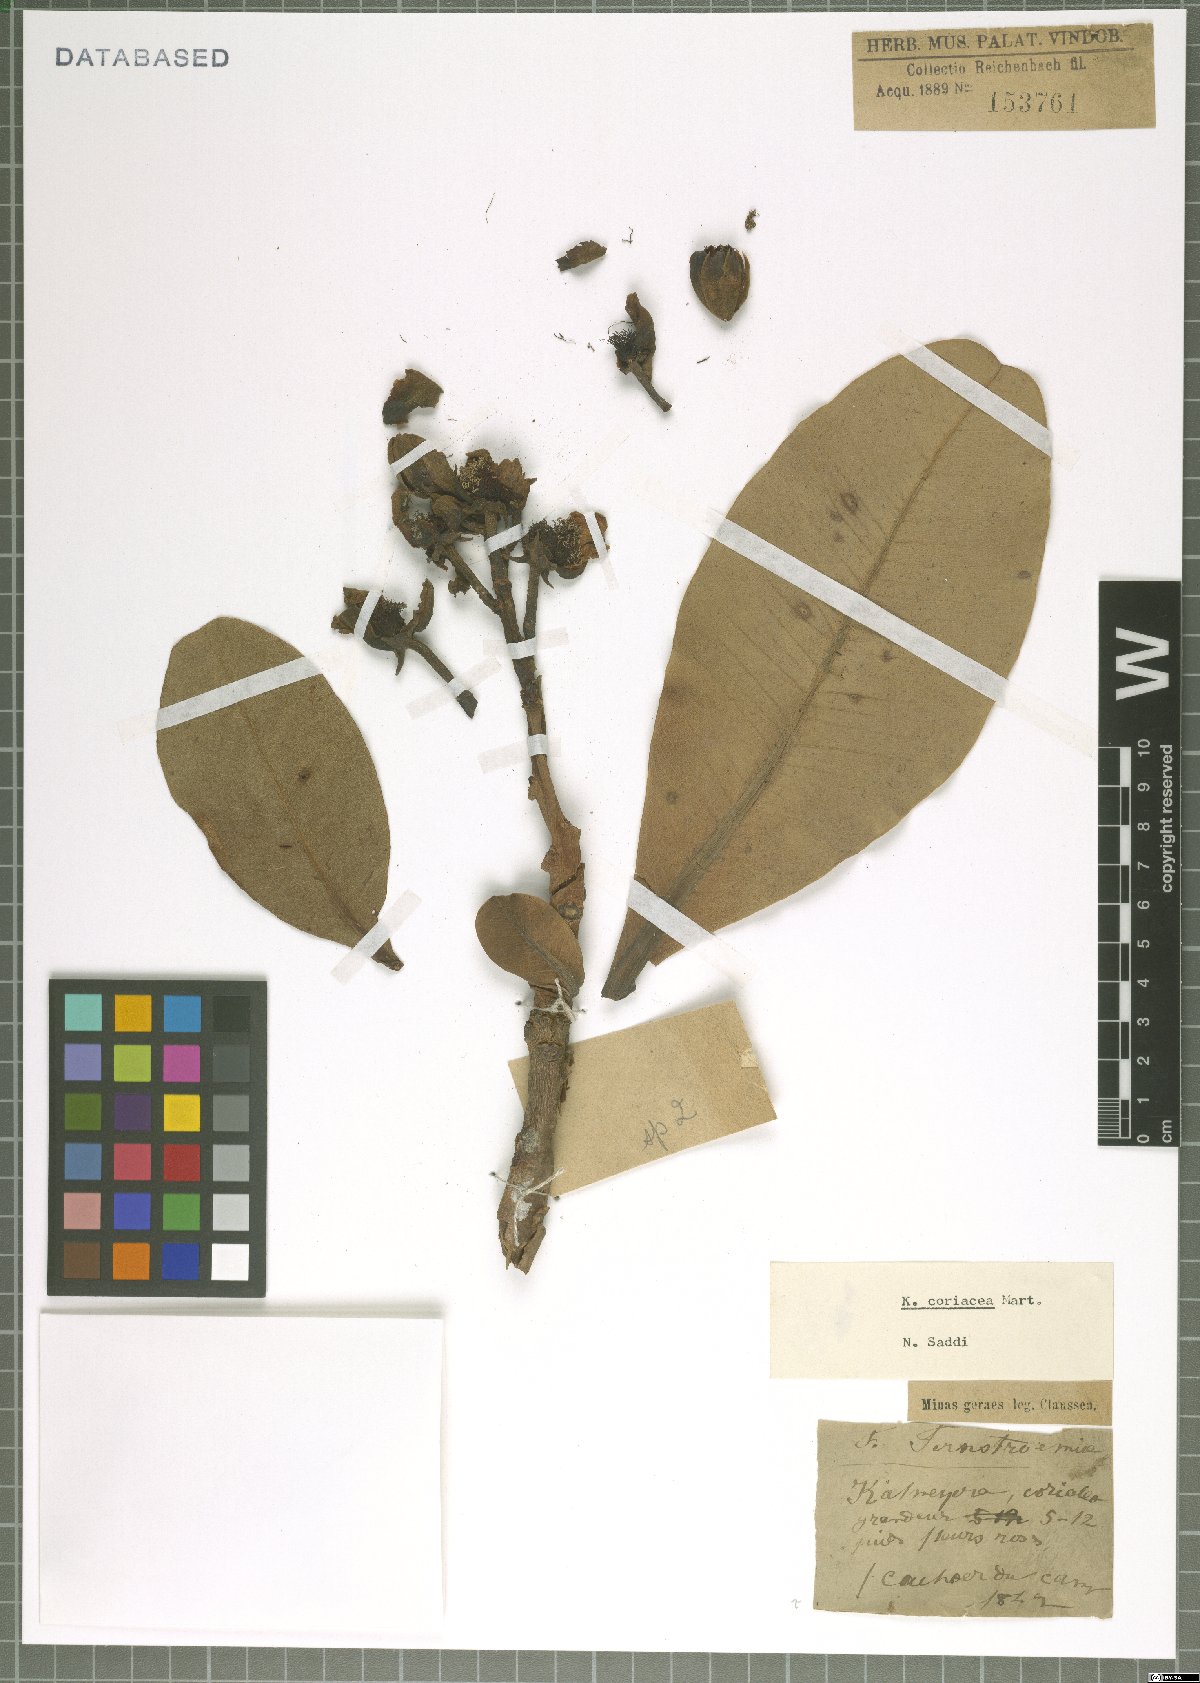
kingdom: Plantae
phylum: Tracheophyta
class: Magnoliopsida
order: Malpighiales
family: Calophyllaceae
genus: Kielmeyera
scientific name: Kielmeyera coriacea
